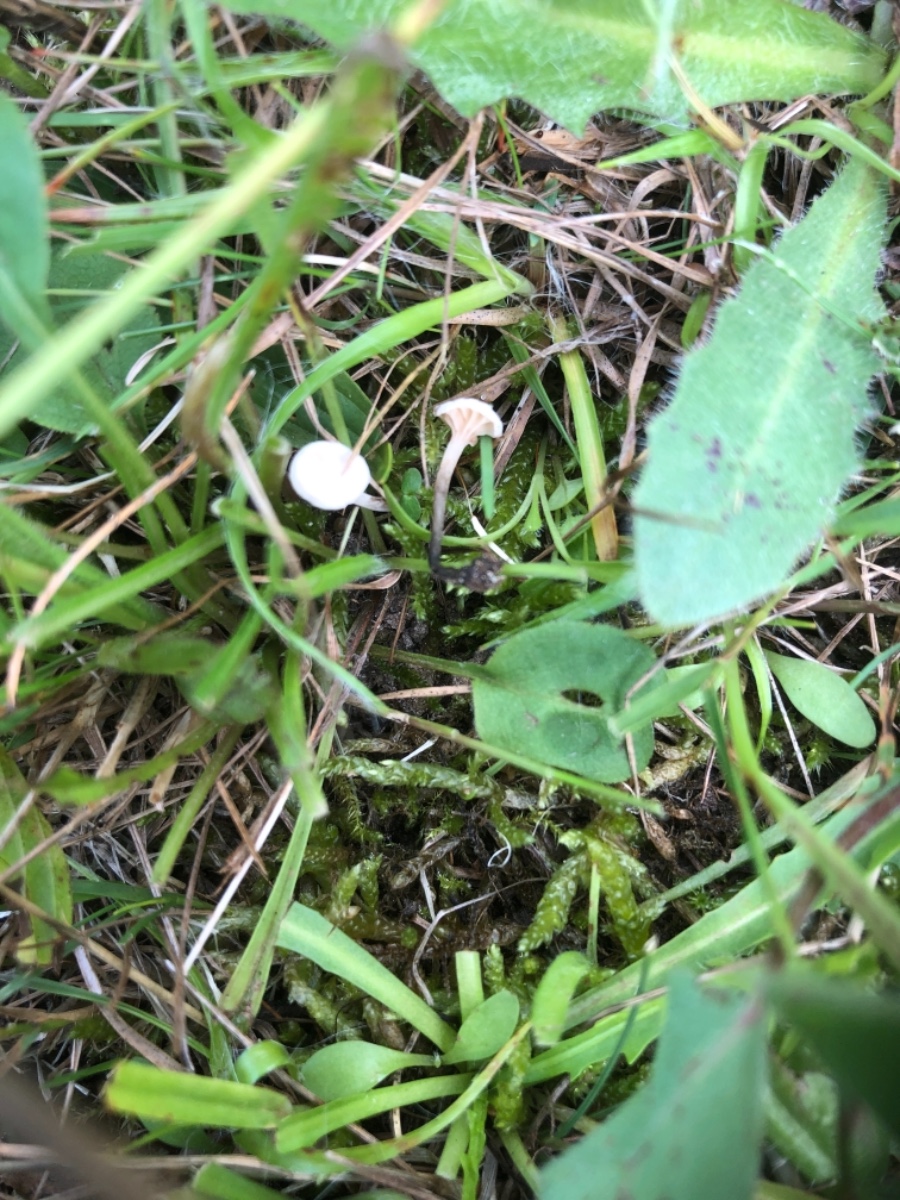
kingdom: Fungi
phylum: Basidiomycota
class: Agaricomycetes
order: Agaricales
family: Omphalotaceae
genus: Marasmiellus
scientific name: Marasmiellus tricolor
